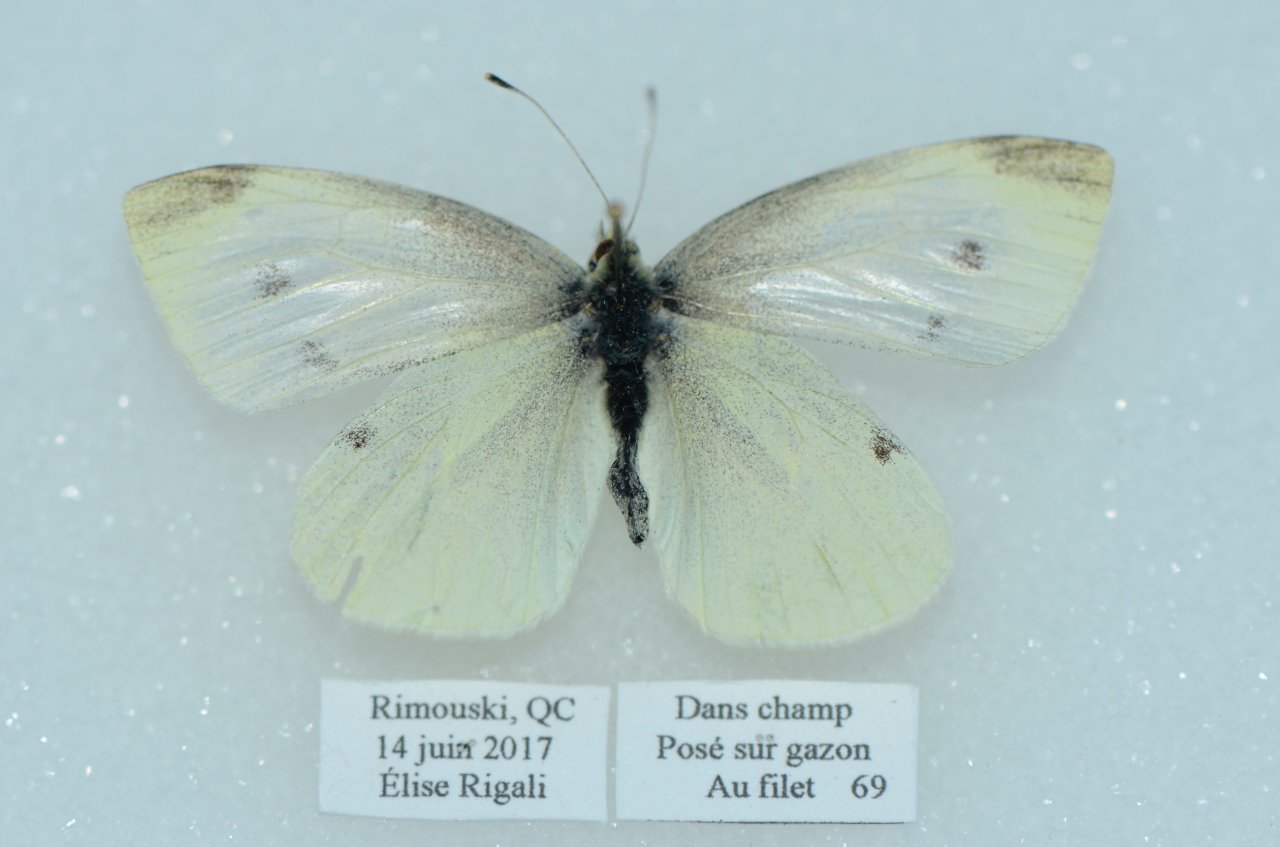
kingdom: Animalia
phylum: Arthropoda
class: Insecta
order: Lepidoptera
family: Pieridae
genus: Pieris
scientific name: Pieris rapae
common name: Cabbage White
